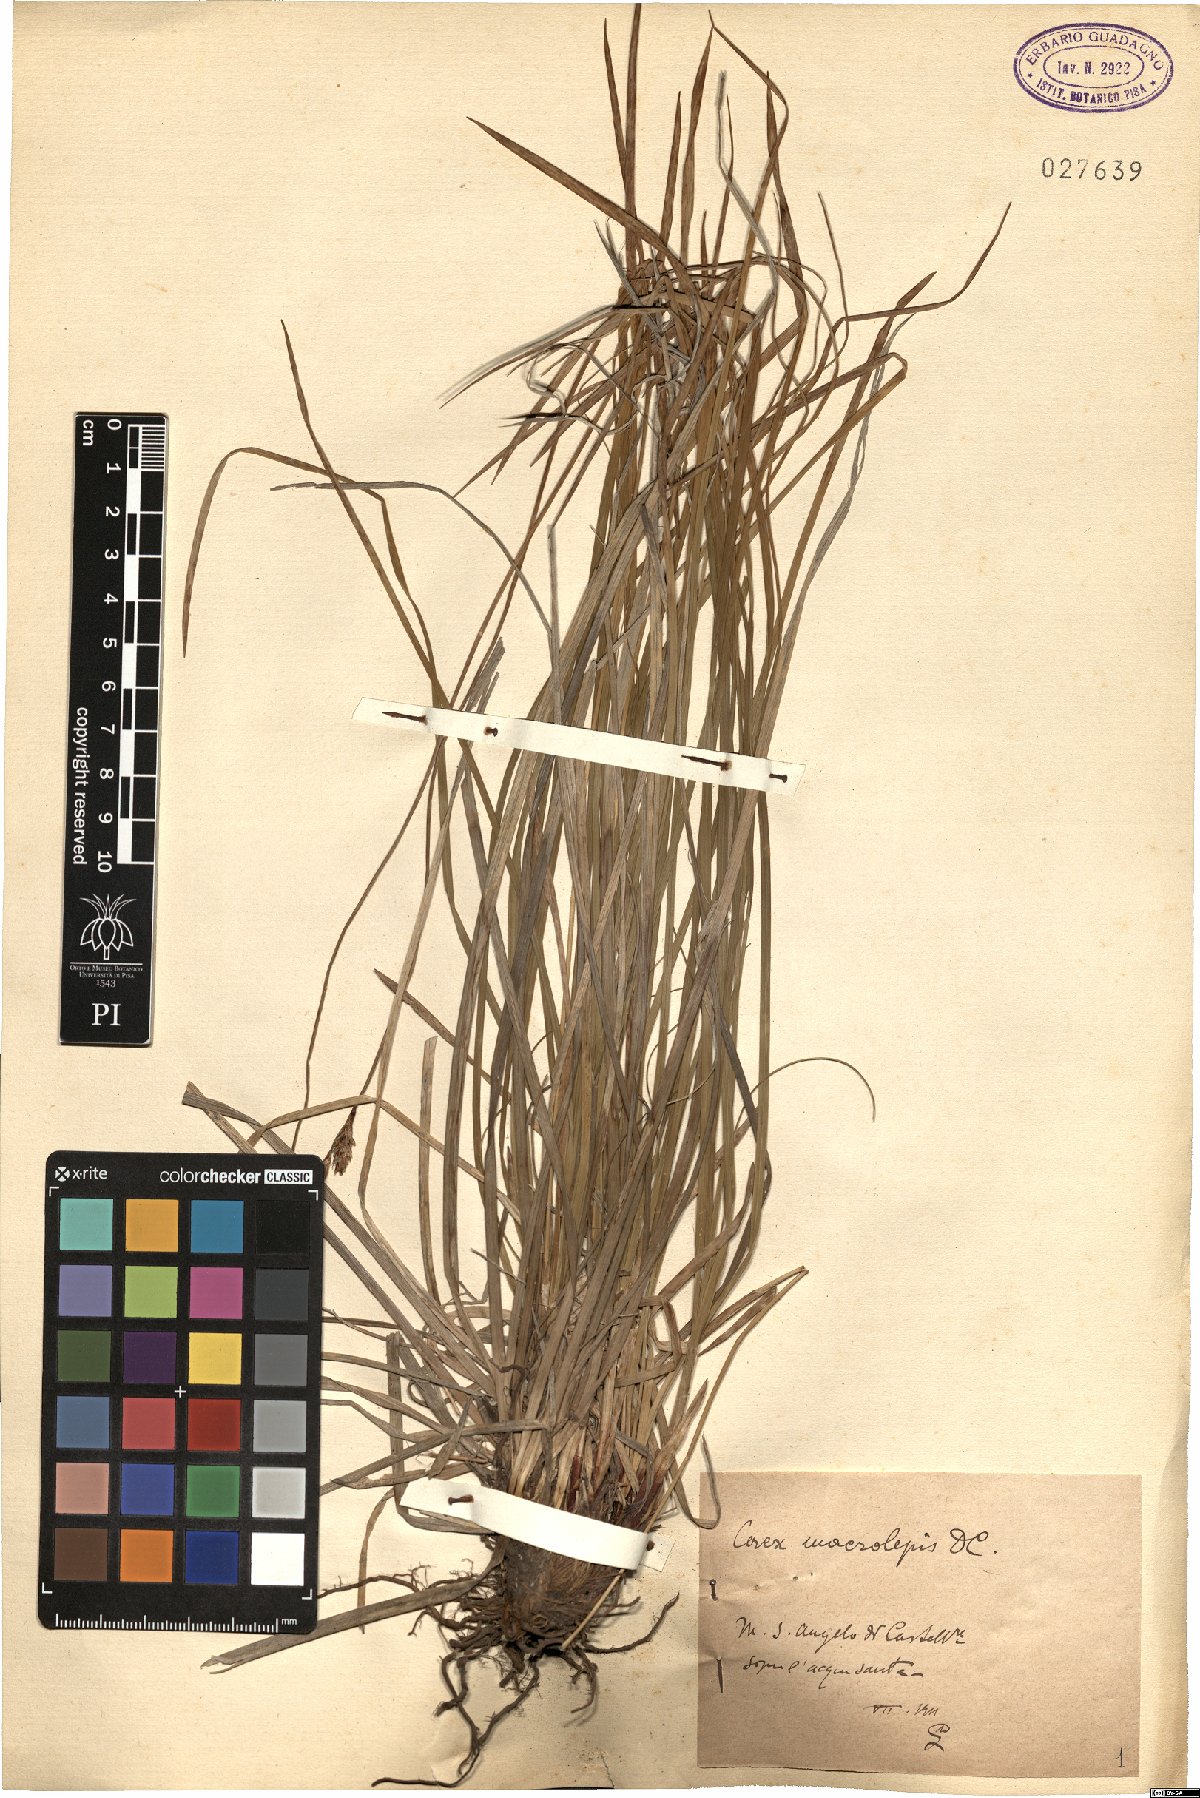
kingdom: Plantae
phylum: Tracheophyta
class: Liliopsida
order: Poales
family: Cyperaceae
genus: Carex
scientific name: Carex macrolepis
